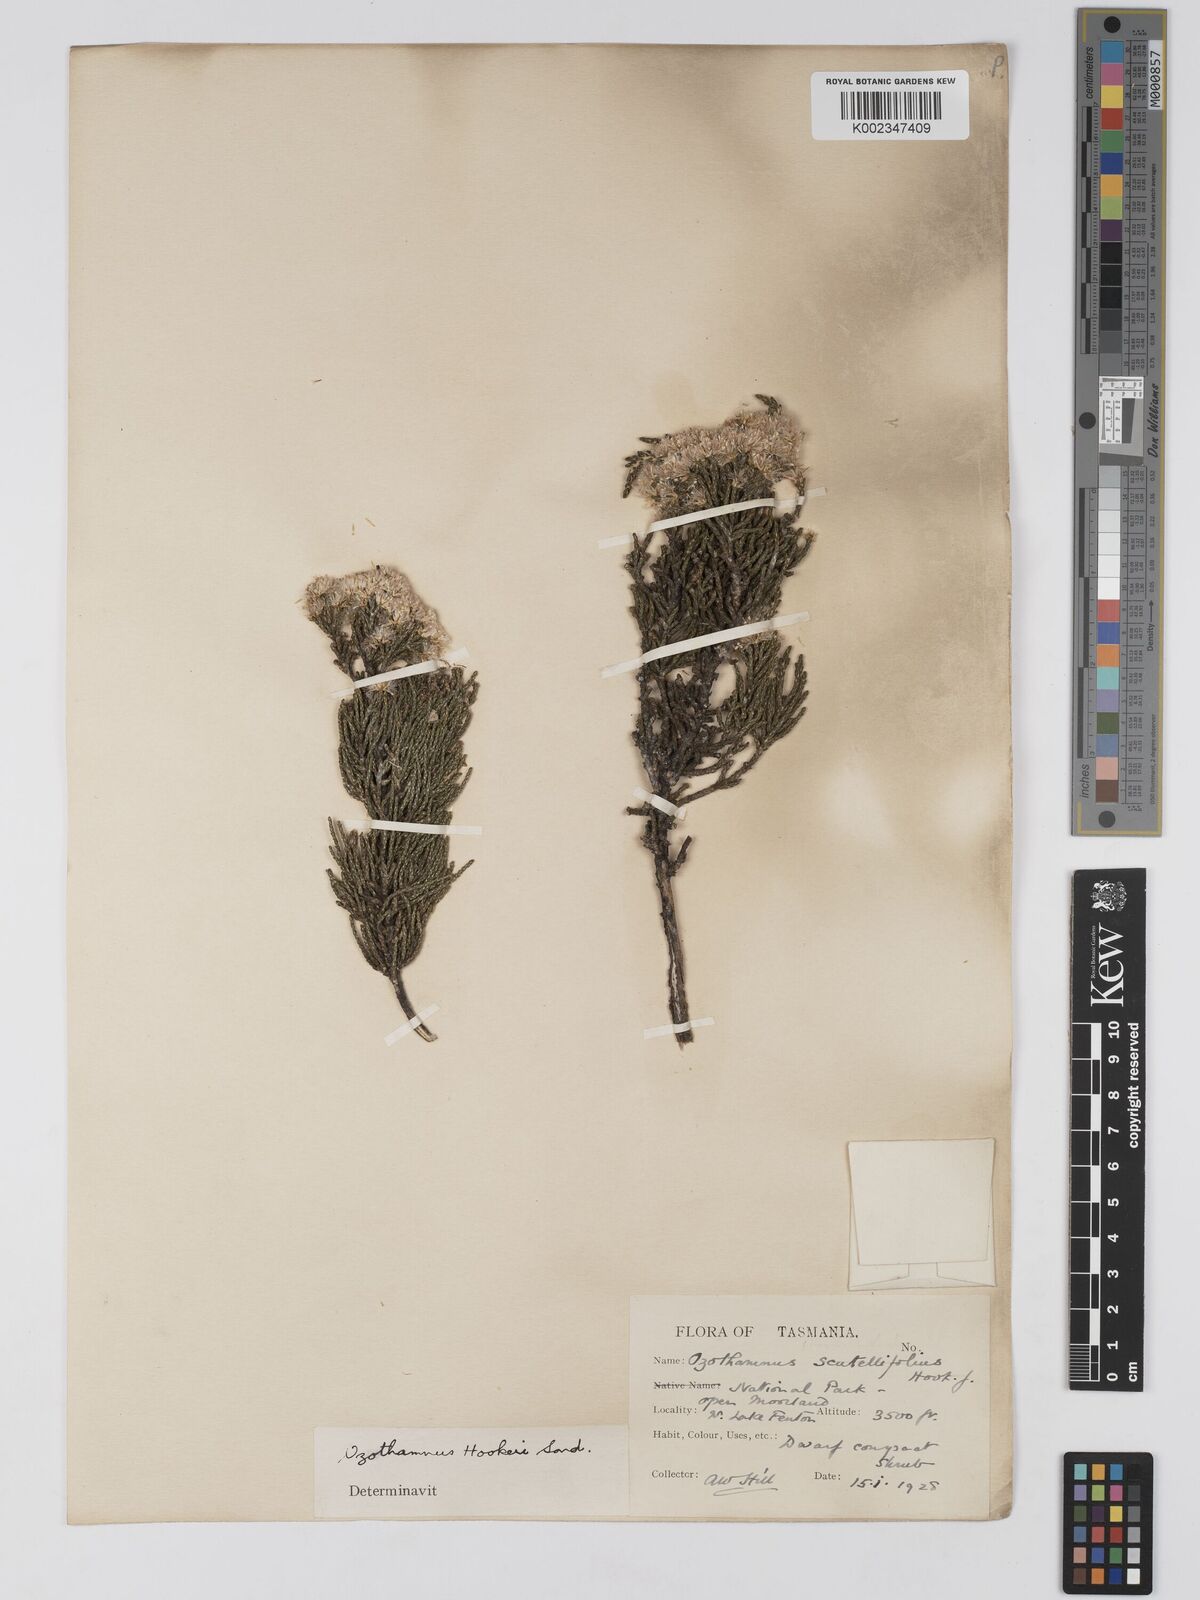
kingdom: Plantae
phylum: Tracheophyta
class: Magnoliopsida
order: Asterales
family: Asteraceae
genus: Ozothamnus
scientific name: Ozothamnus hookeri
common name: Kerosene-bush
